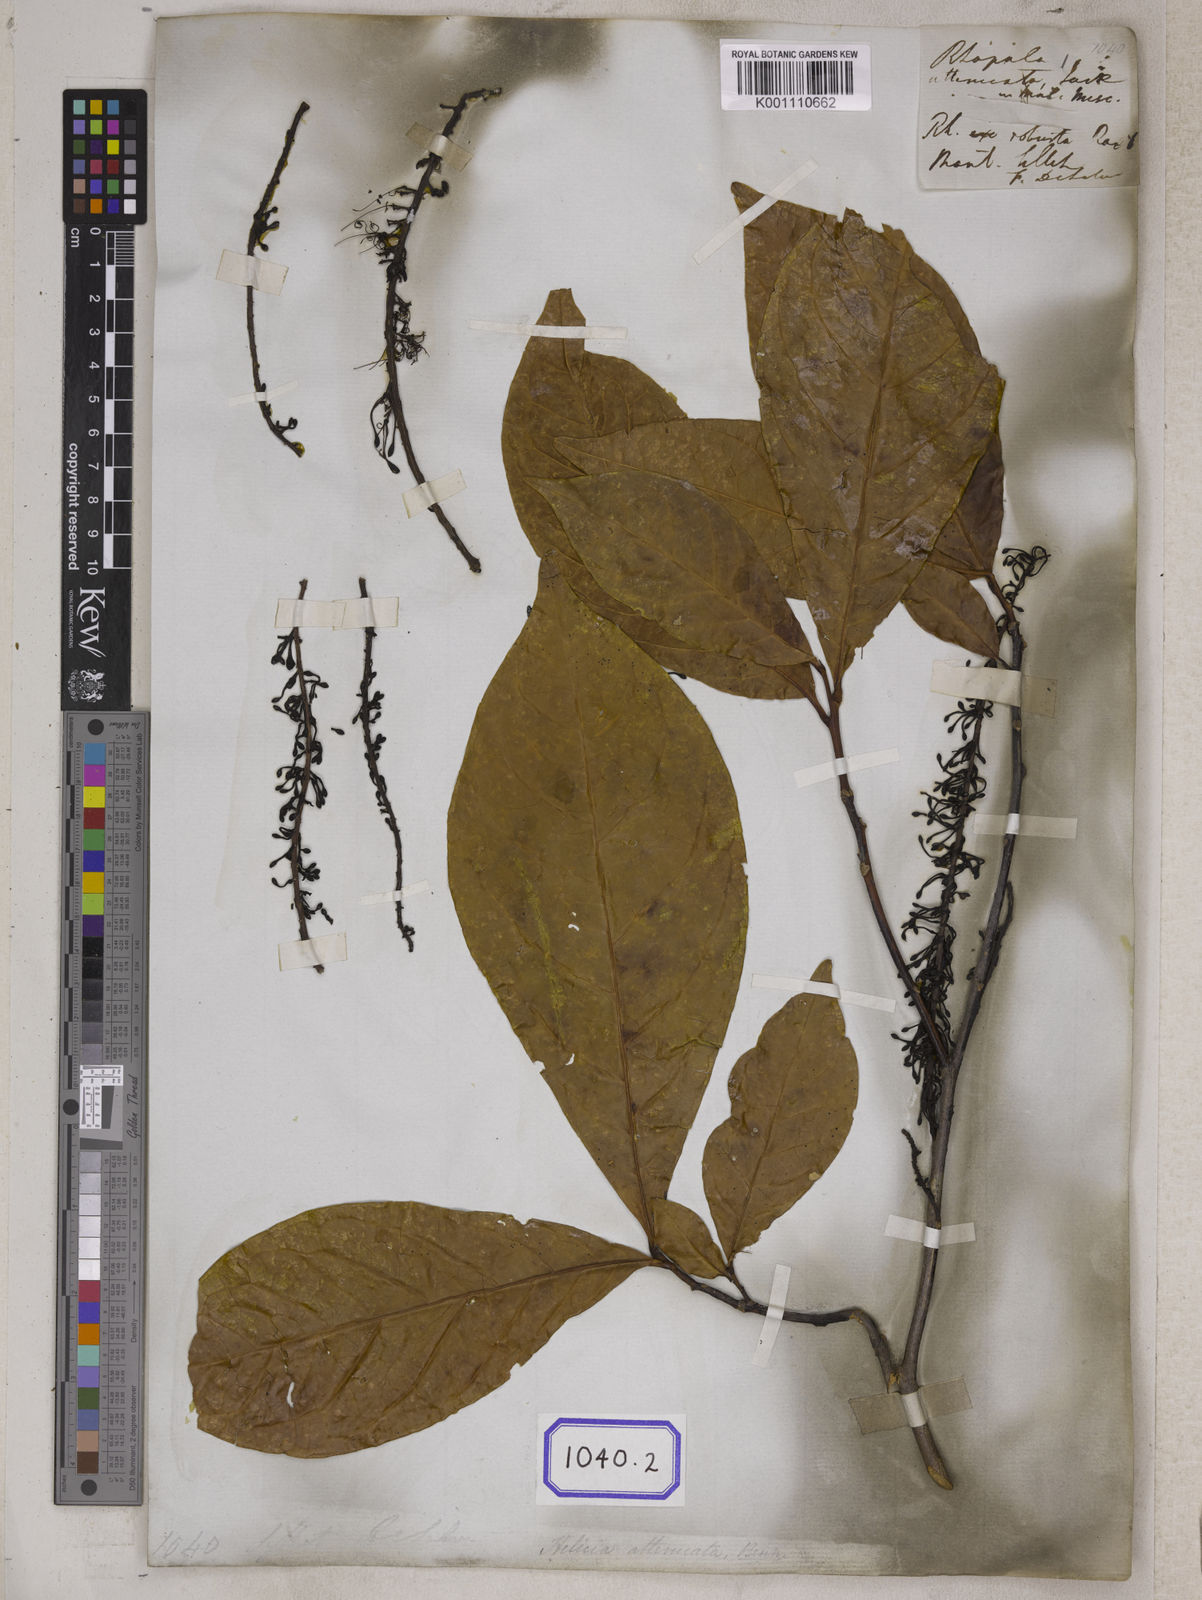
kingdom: Plantae
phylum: Tracheophyta
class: Magnoliopsida
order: Proteales
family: Proteaceae
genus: Helicia
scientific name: Helicia attenuata
